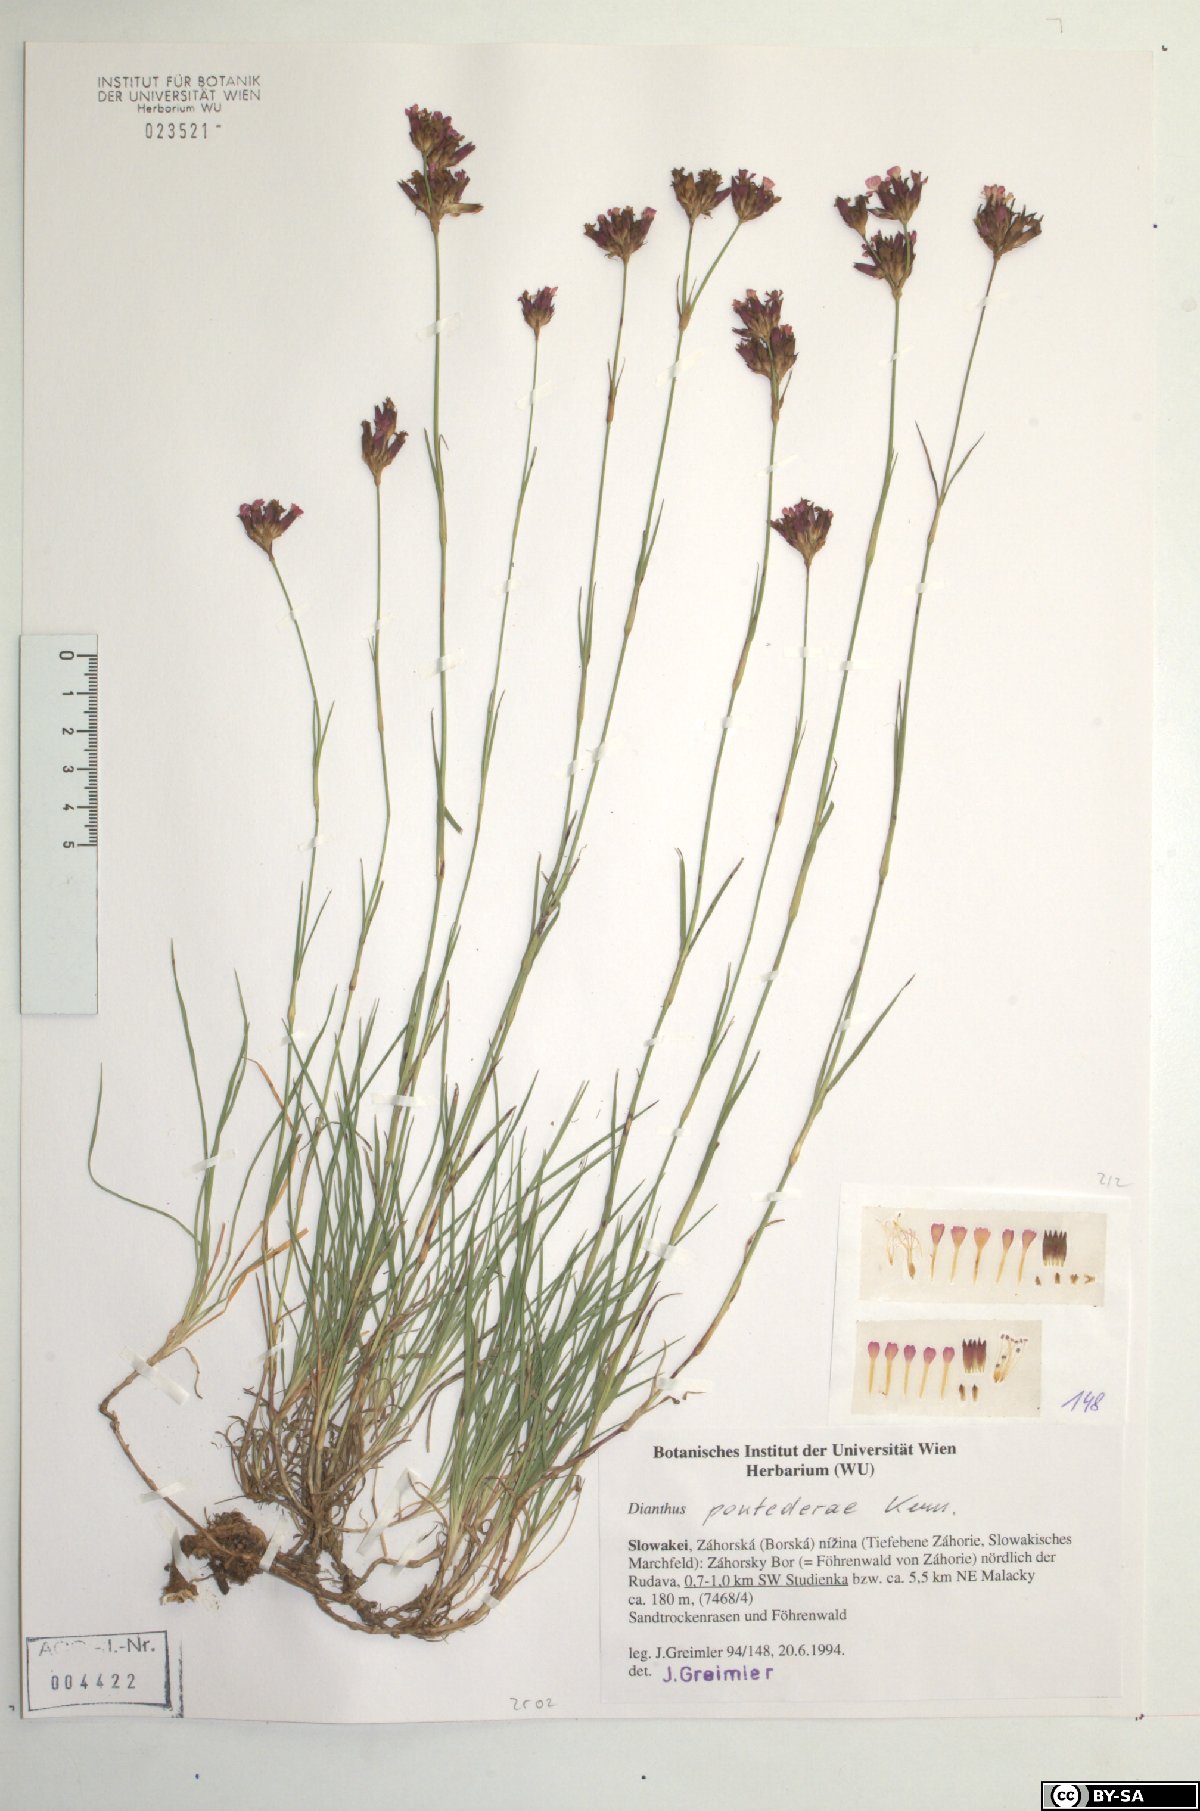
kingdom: Plantae
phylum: Tracheophyta
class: Magnoliopsida
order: Caryophyllales
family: Caryophyllaceae
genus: Dianthus
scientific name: Dianthus pontederae
